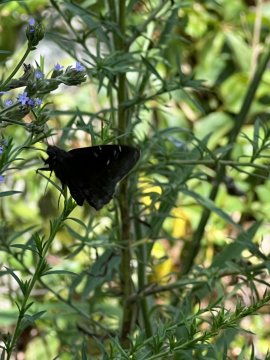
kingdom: Animalia
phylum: Arthropoda
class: Insecta
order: Lepidoptera
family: Hesperiidae
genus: Autochton
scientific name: Autochton
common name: Northern Cloudywing
